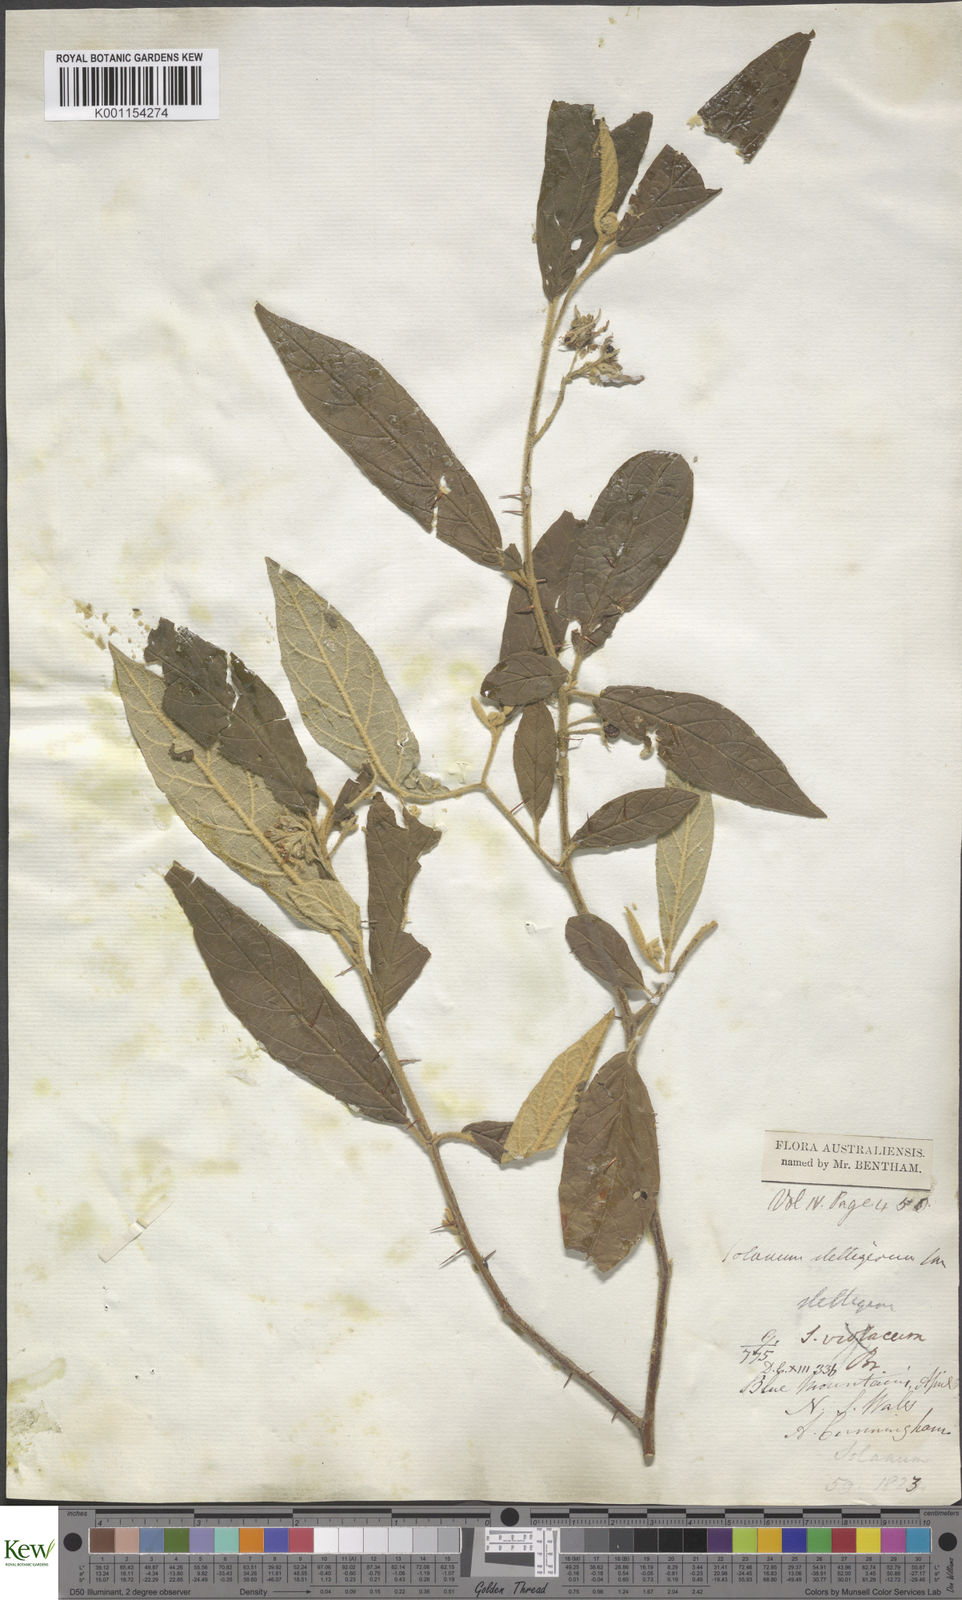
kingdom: Plantae
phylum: Tracheophyta
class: Magnoliopsida
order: Solanales
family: Solanaceae
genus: Solanum
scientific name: Solanum stelligerum
